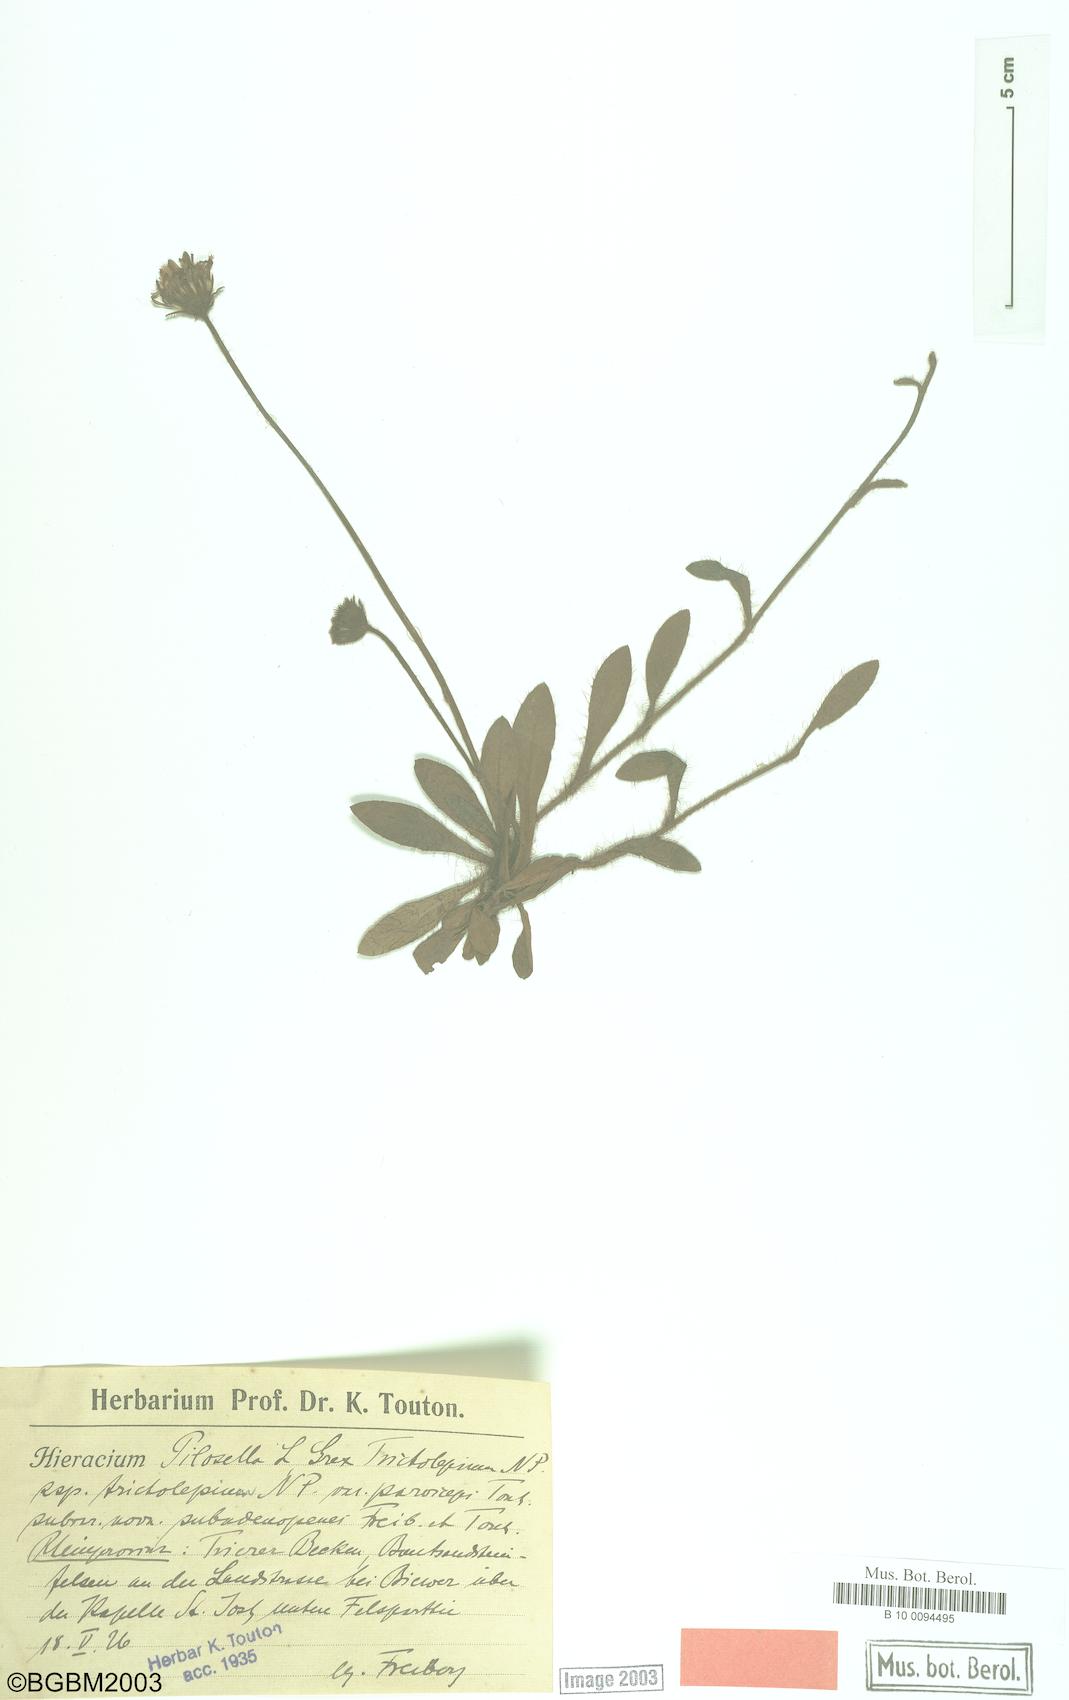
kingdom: Plantae
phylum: Tracheophyta
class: Magnoliopsida
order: Asterales
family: Asteraceae
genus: Pilosella
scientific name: Pilosella officinarum
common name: Mouse-ear hawkweed
